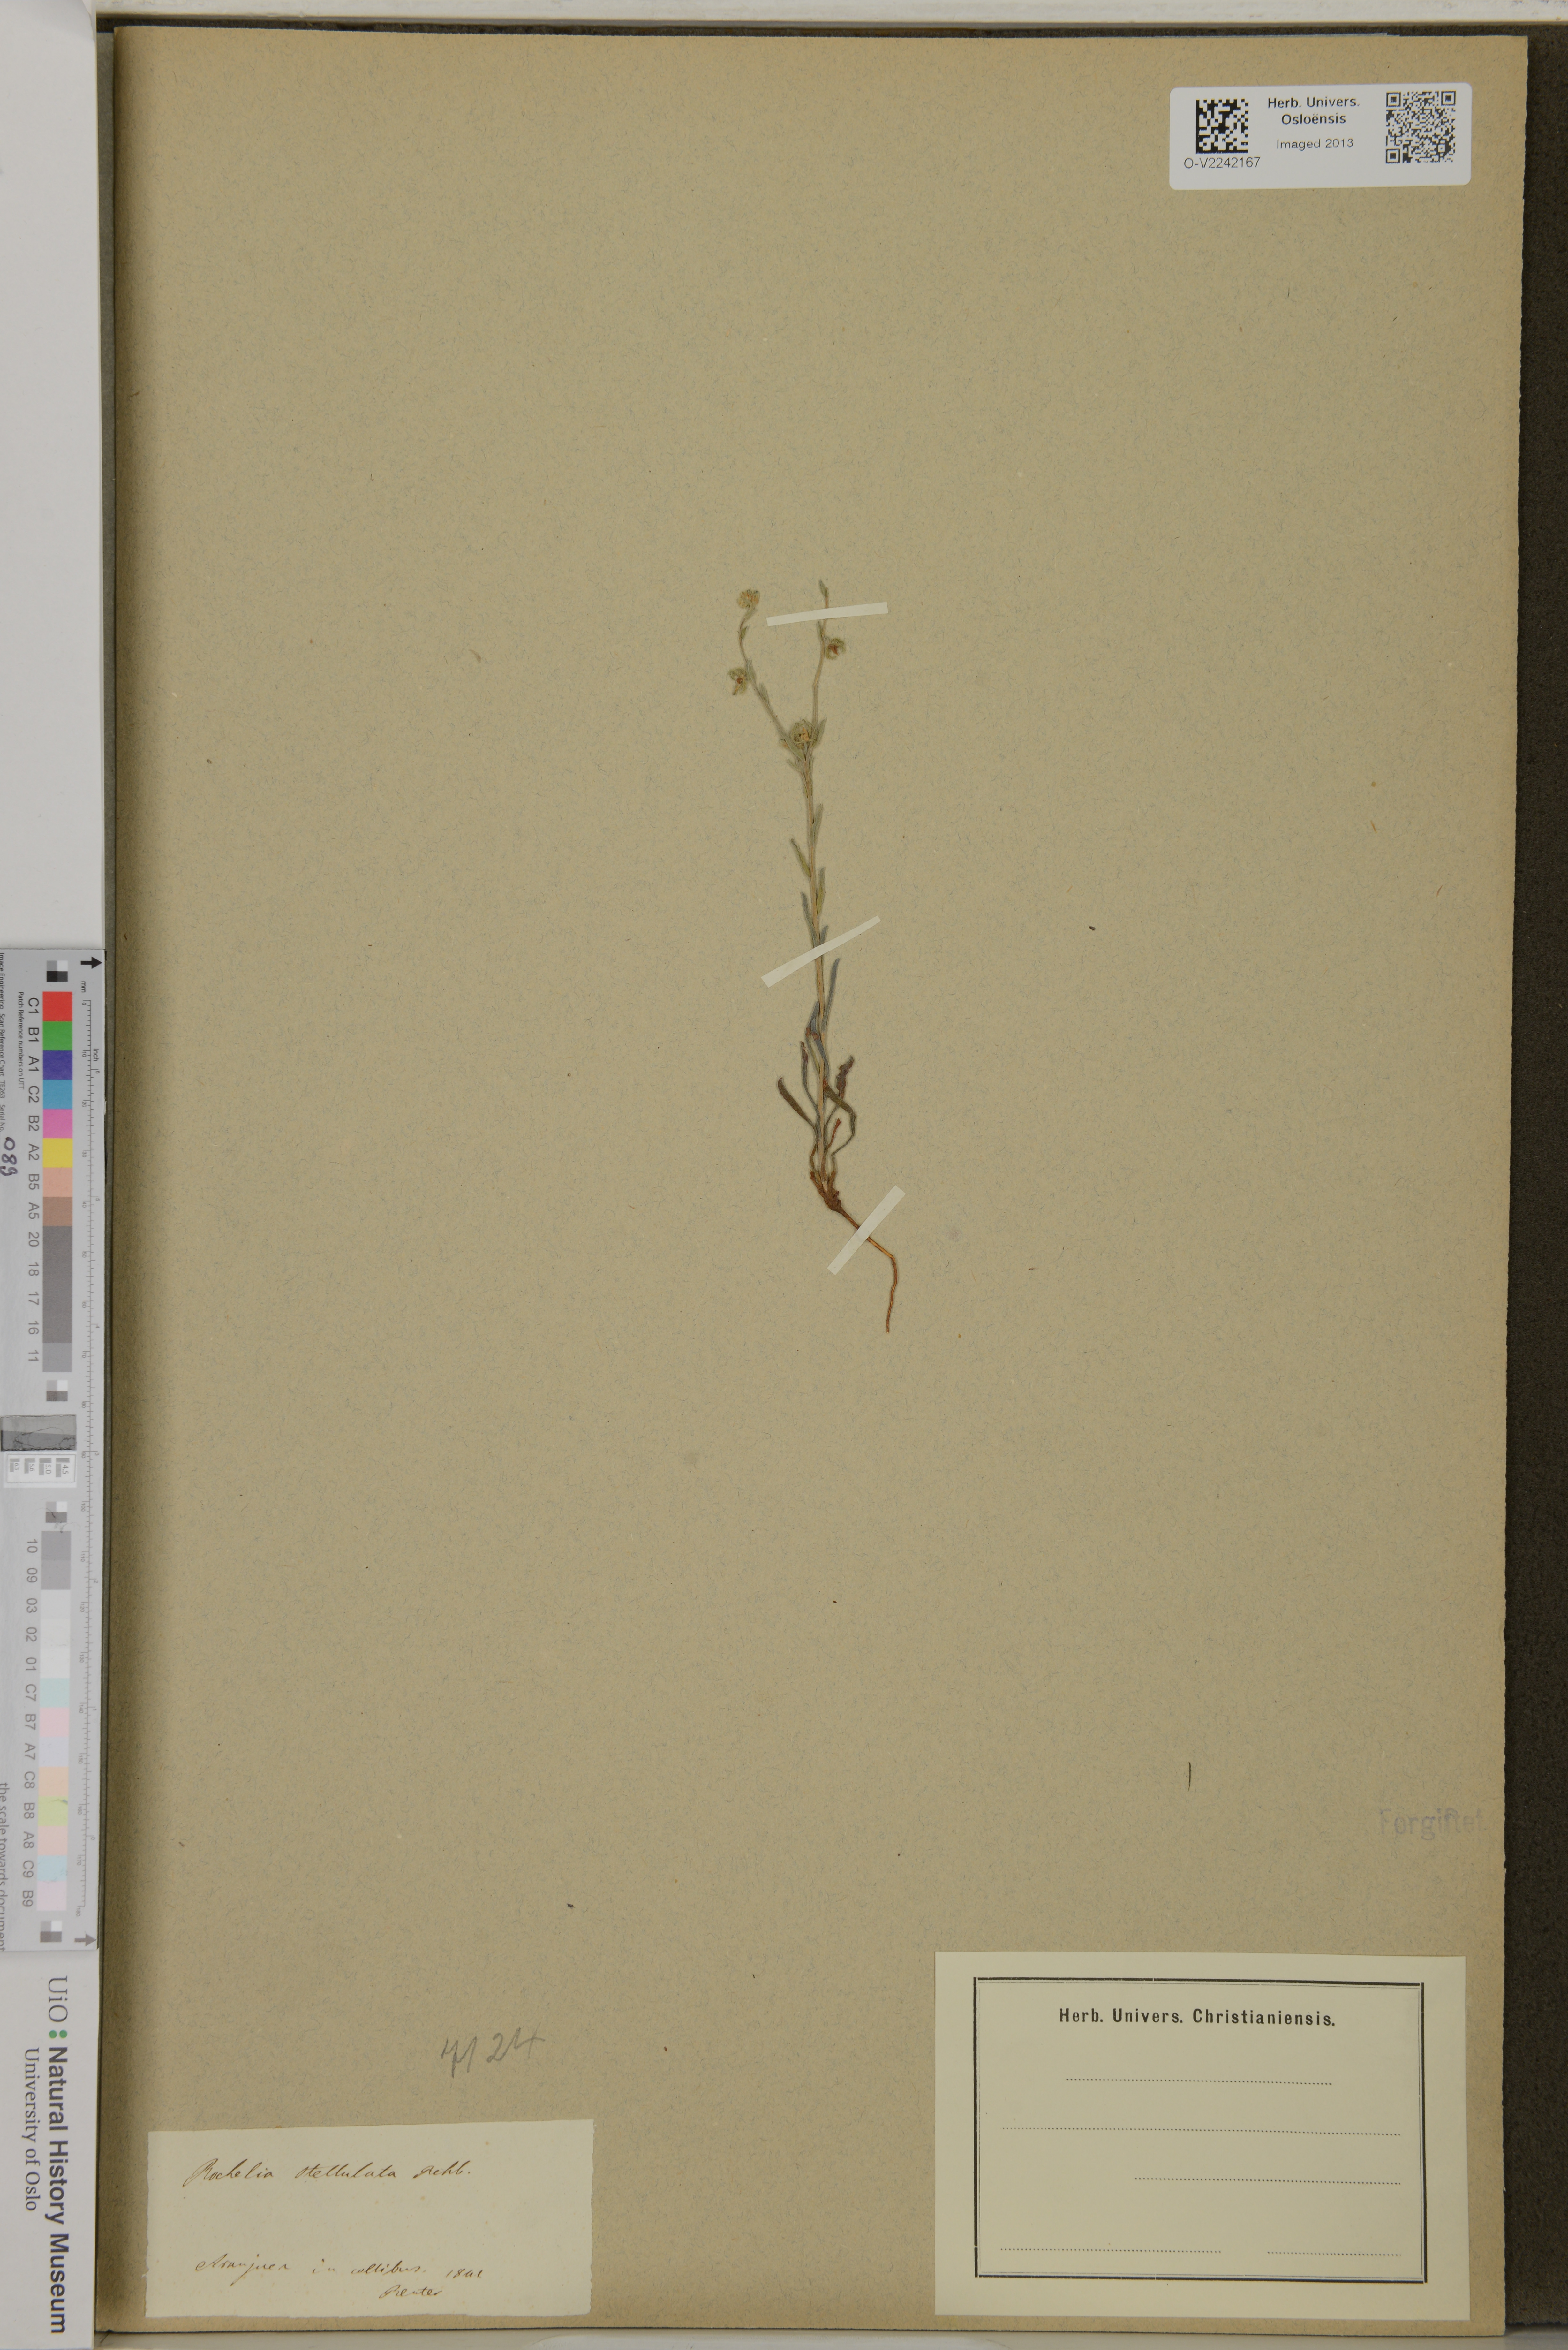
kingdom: Plantae
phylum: Tracheophyta
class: Magnoliopsida
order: Boraginales
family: Boraginaceae
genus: Rochelia
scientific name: Rochelia
